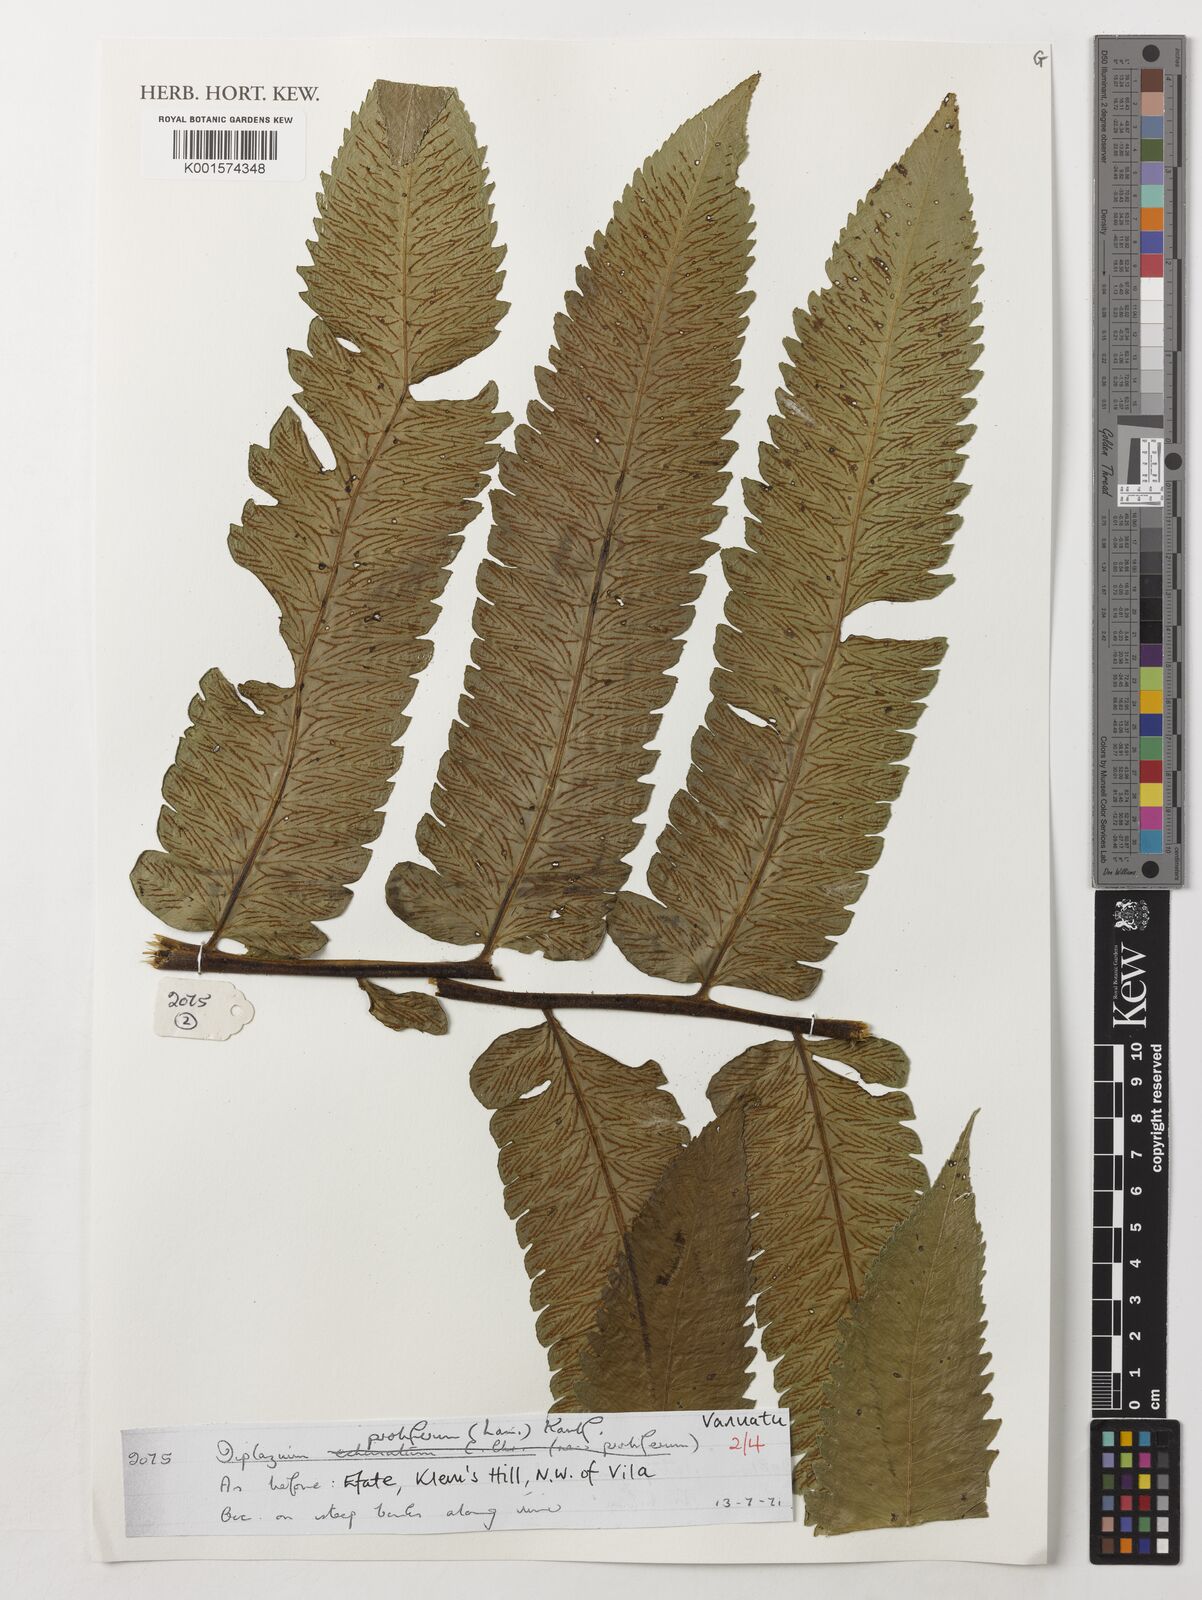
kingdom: Plantae
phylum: Tracheophyta
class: Polypodiopsida
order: Polypodiales
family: Athyriaceae
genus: Diplazium
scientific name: Diplazium proliferum
